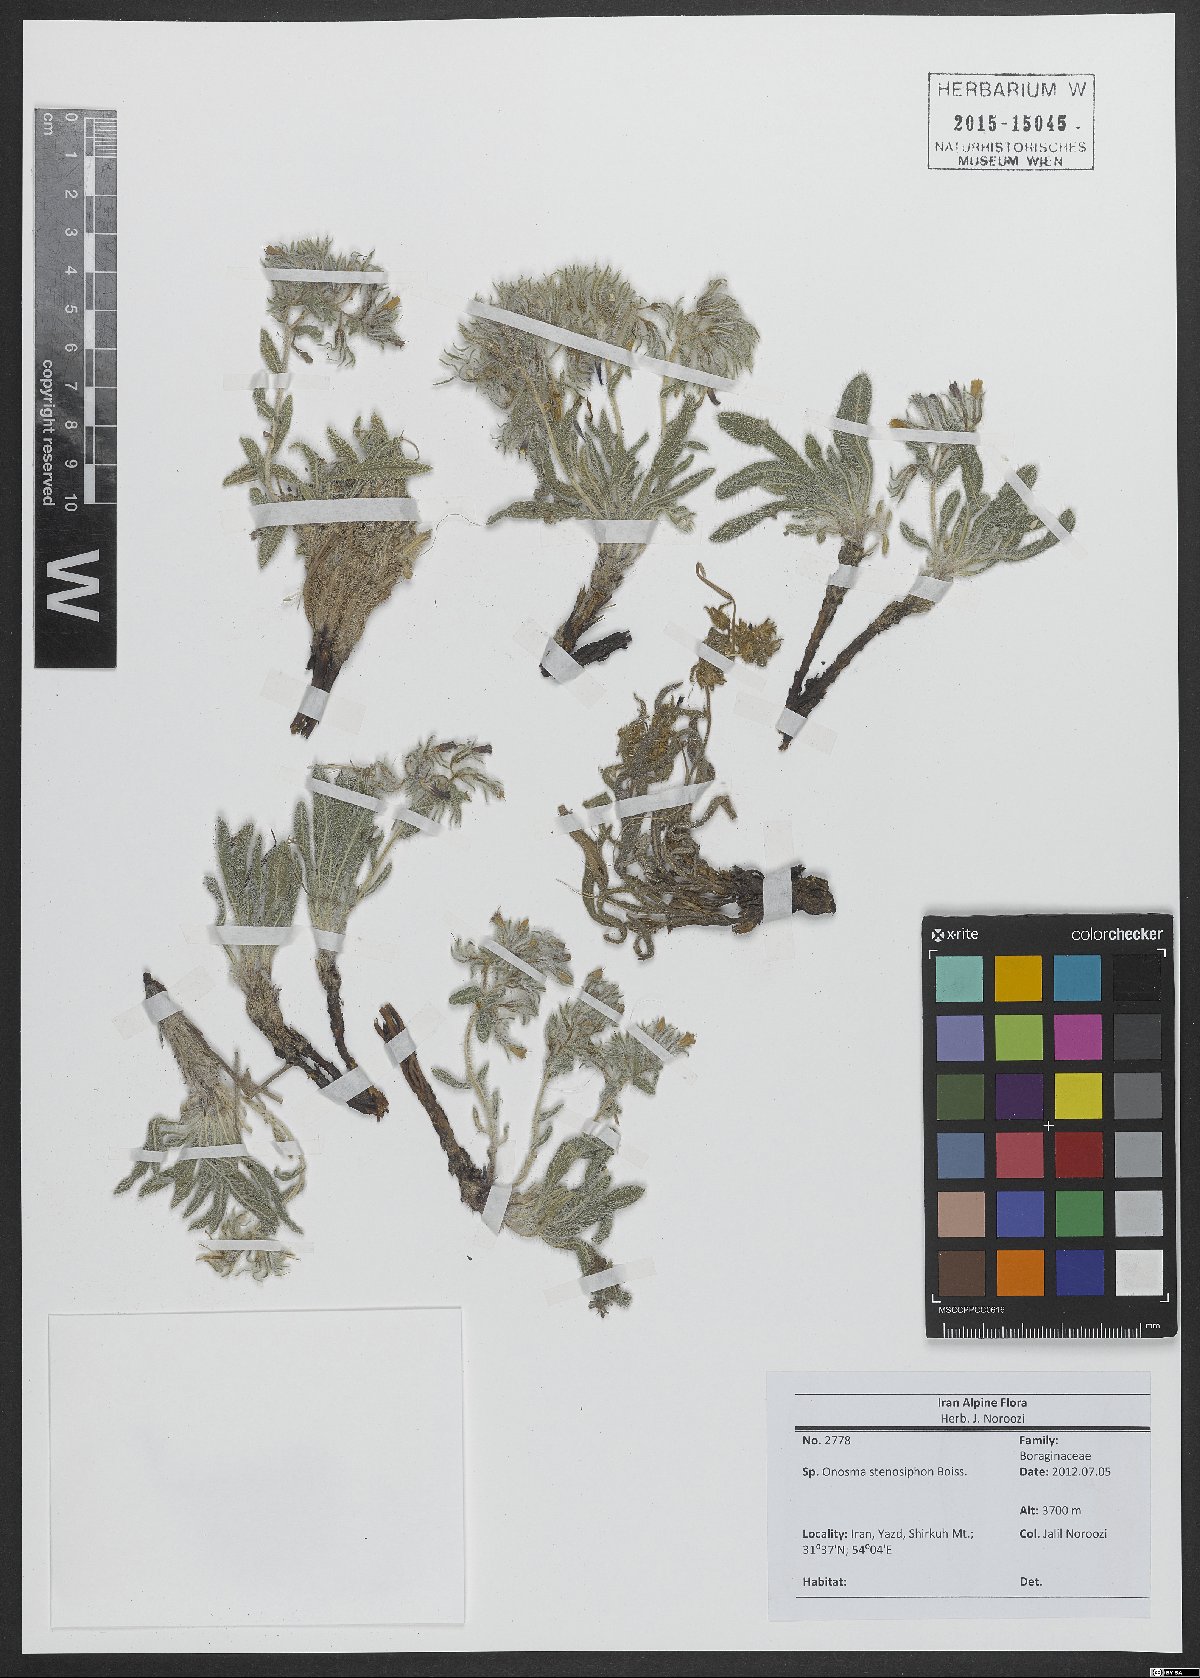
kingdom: Plantae
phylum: Tracheophyta
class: Magnoliopsida
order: Boraginales
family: Boraginaceae
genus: Maharanga
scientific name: Maharanga stenosiphon
